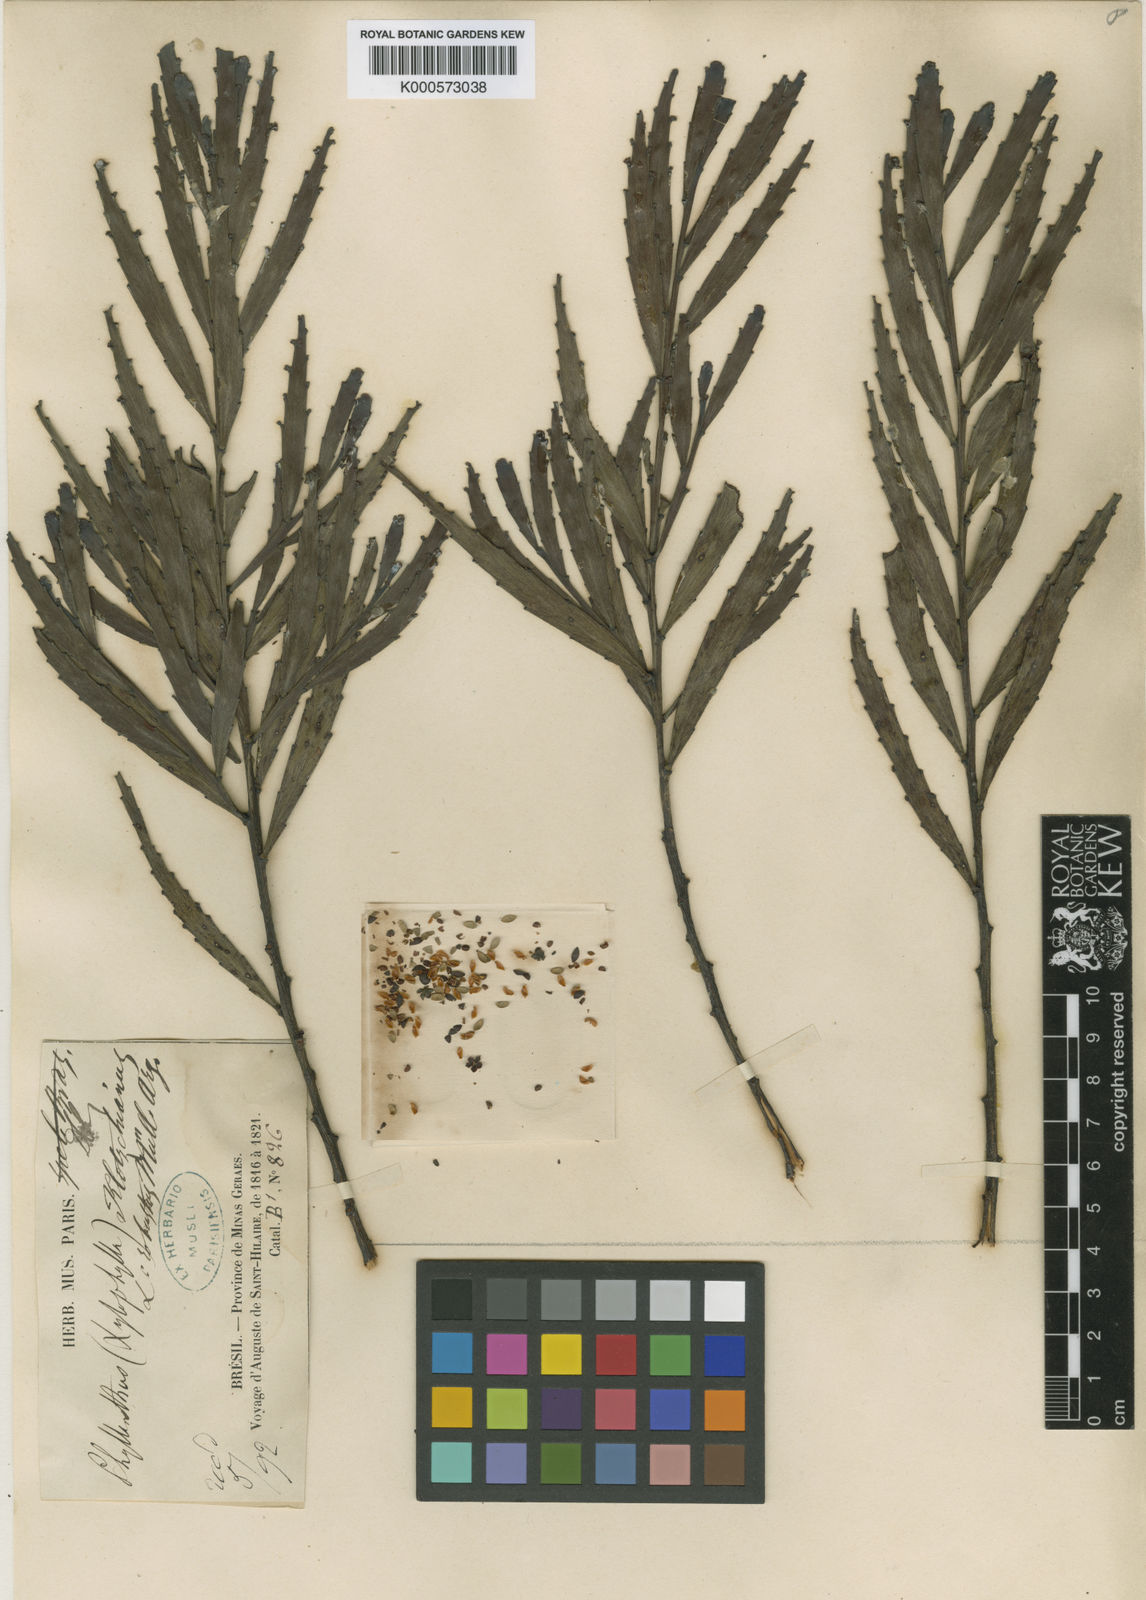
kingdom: Plantae
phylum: Tracheophyta
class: Magnoliopsida
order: Malpighiales
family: Phyllanthaceae
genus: Phyllanthus
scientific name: Phyllanthus
